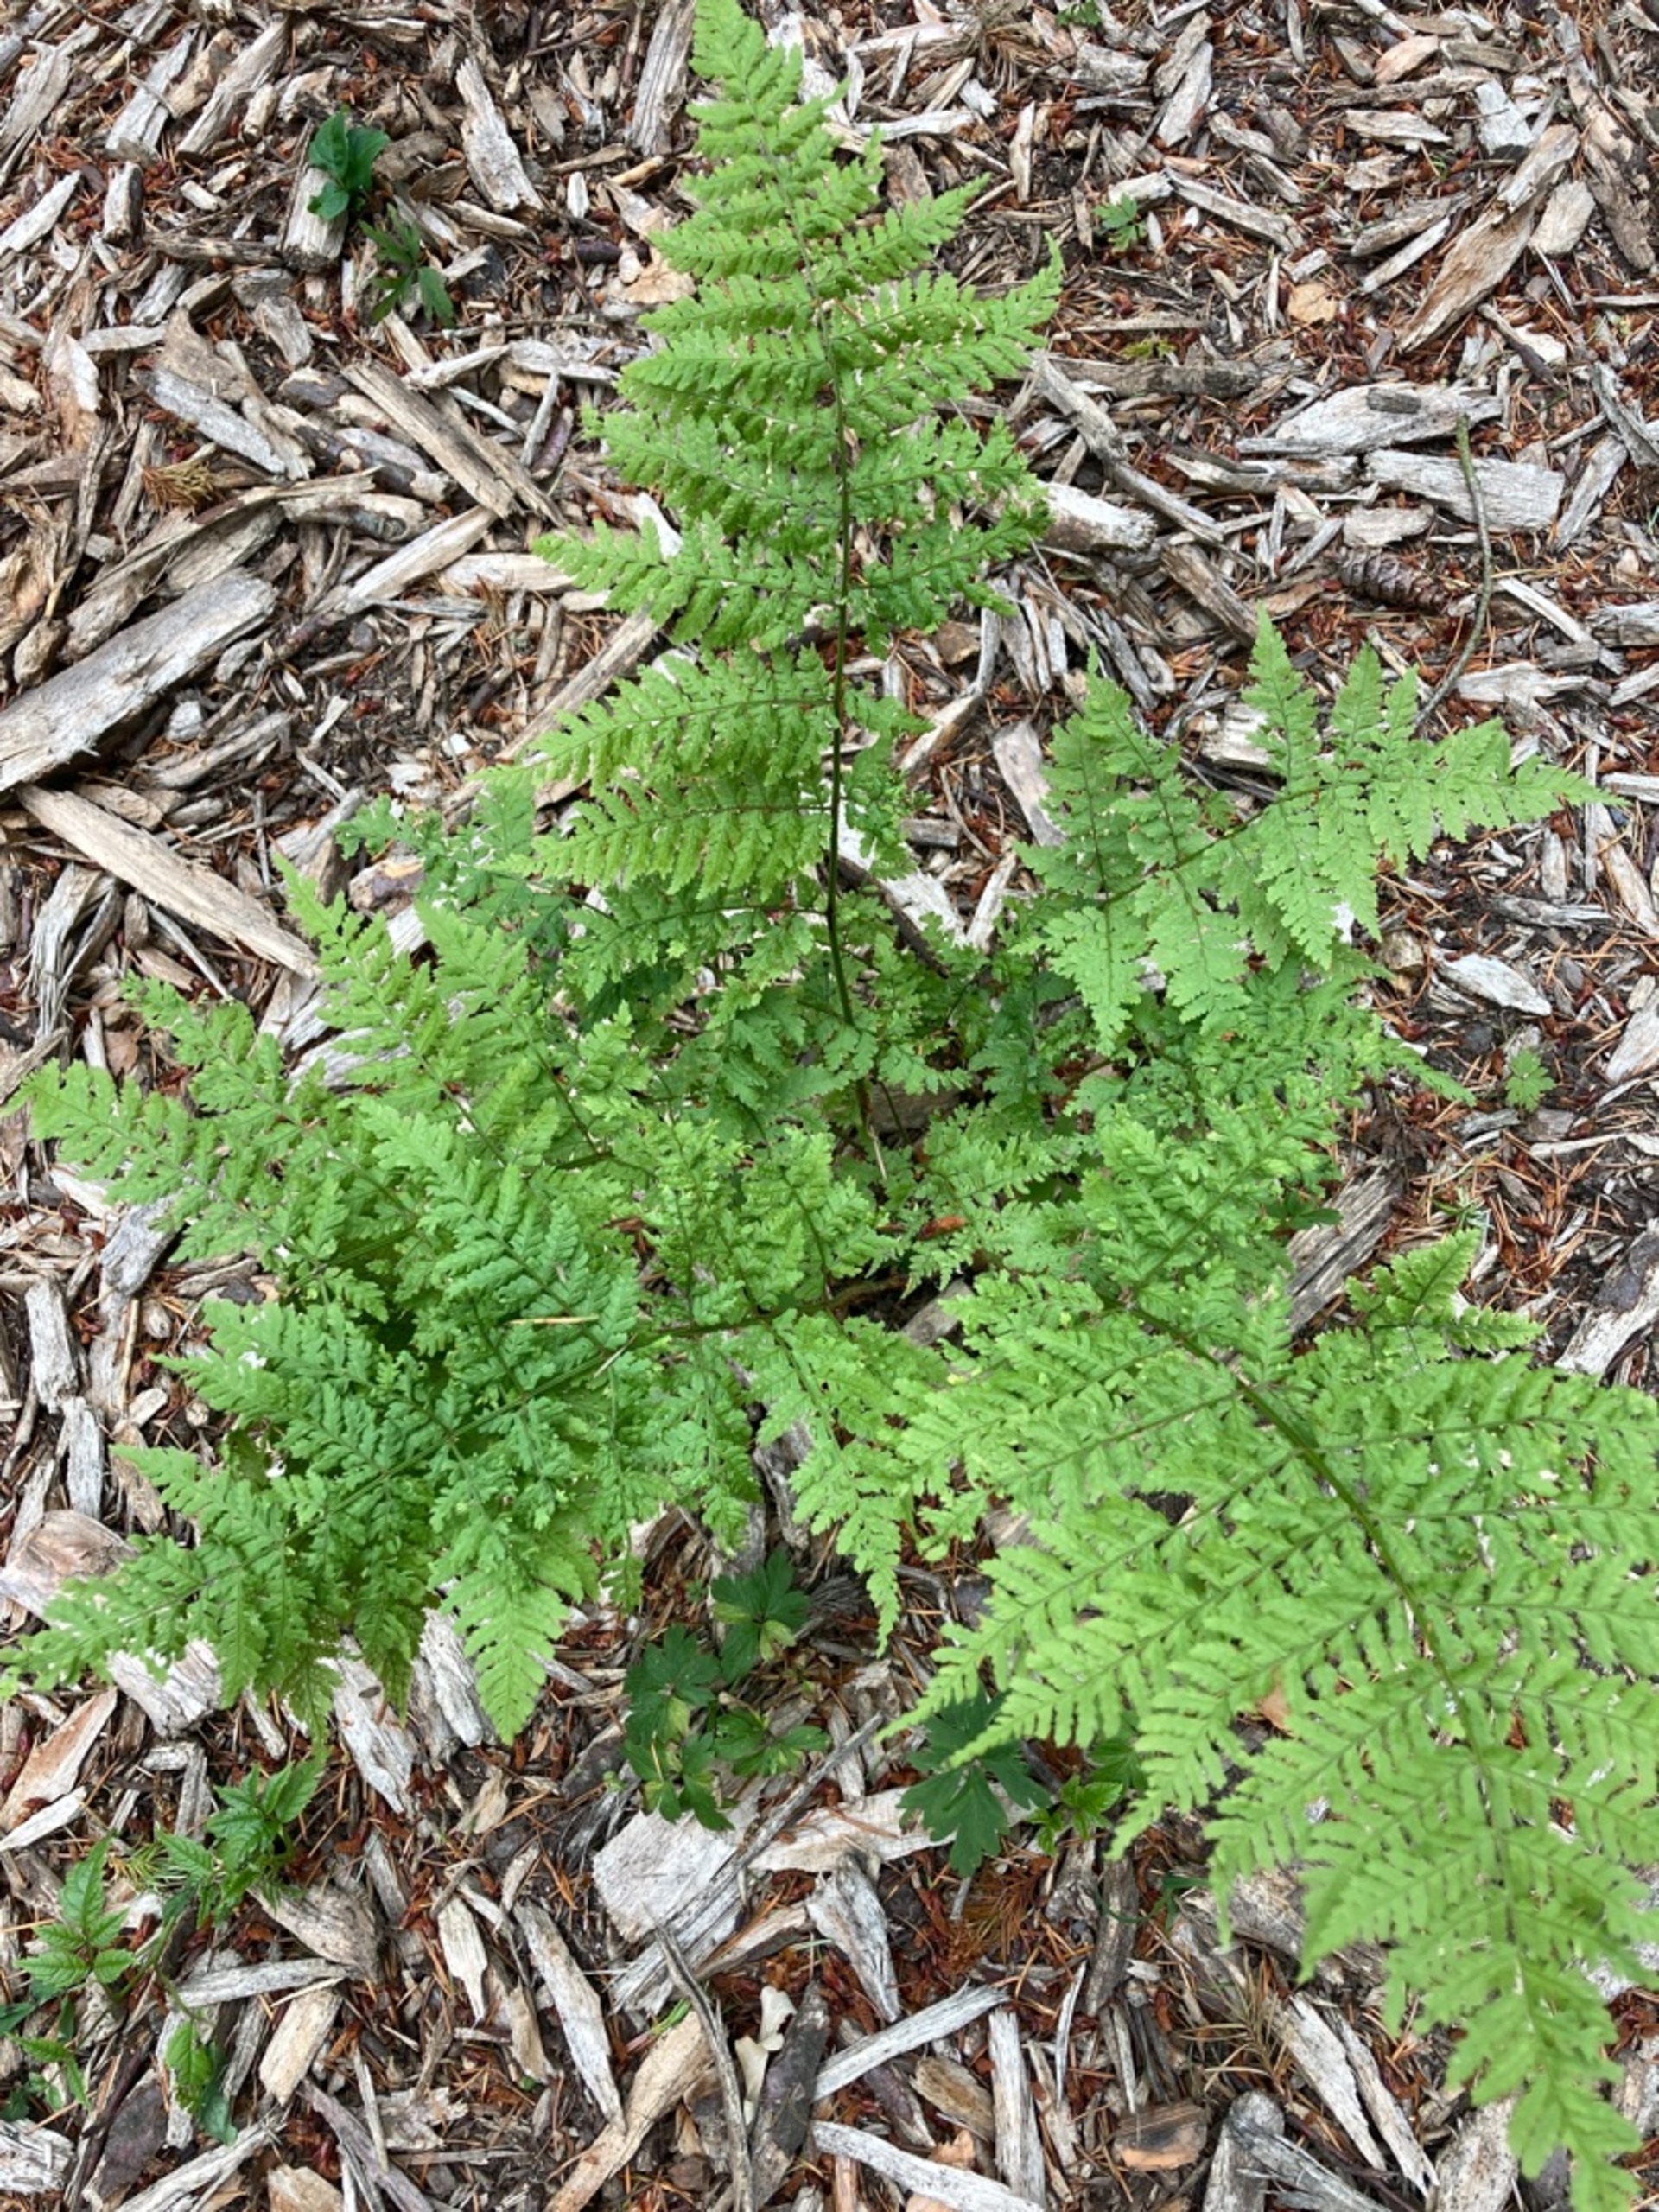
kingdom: Plantae
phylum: Tracheophyta
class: Polypodiopsida
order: Polypodiales
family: Dryopteridaceae
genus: Dryopteris
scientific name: Dryopteris dilatata
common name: Bredbladet mangeløv
